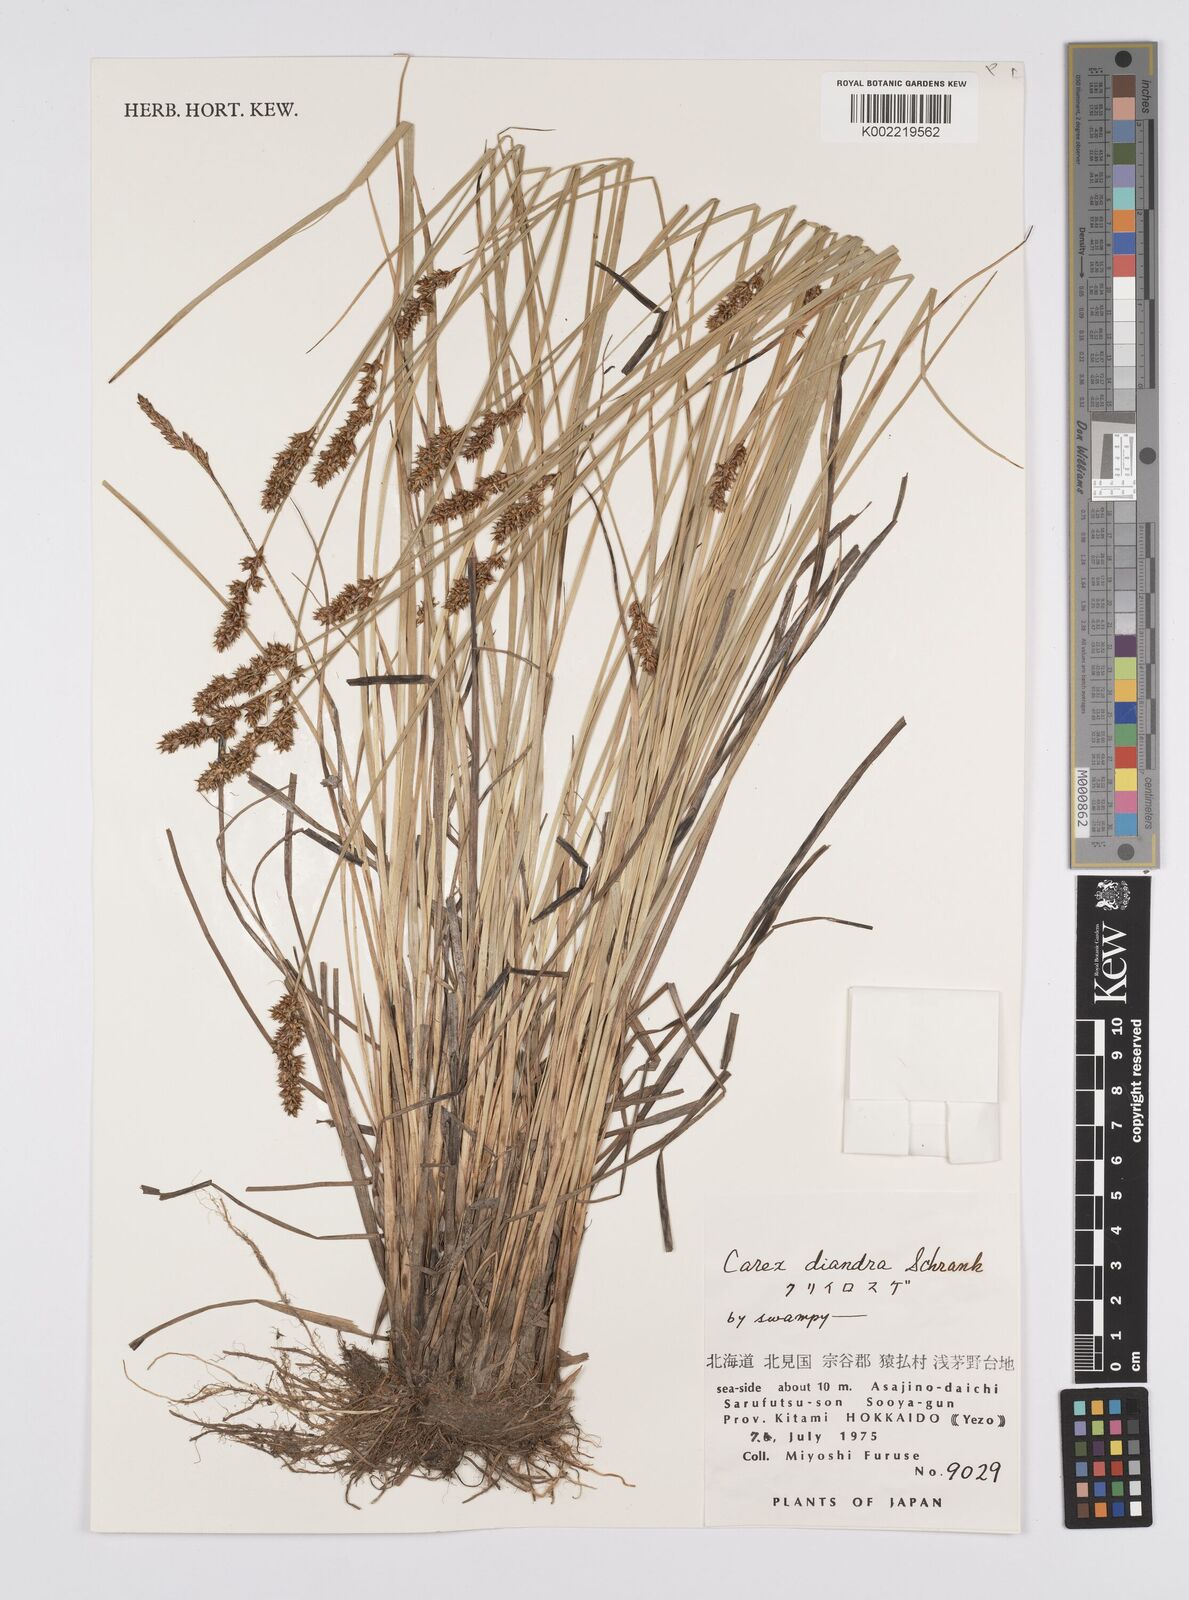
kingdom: Plantae
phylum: Tracheophyta
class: Liliopsida
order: Poales
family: Cyperaceae
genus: Carex
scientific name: Carex diandra
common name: Lesser tussock-sedge
